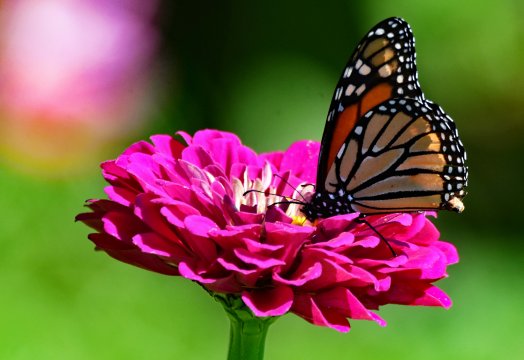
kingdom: Animalia
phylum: Arthropoda
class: Insecta
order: Lepidoptera
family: Nymphalidae
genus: Danaus
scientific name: Danaus plexippus
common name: Monarch
